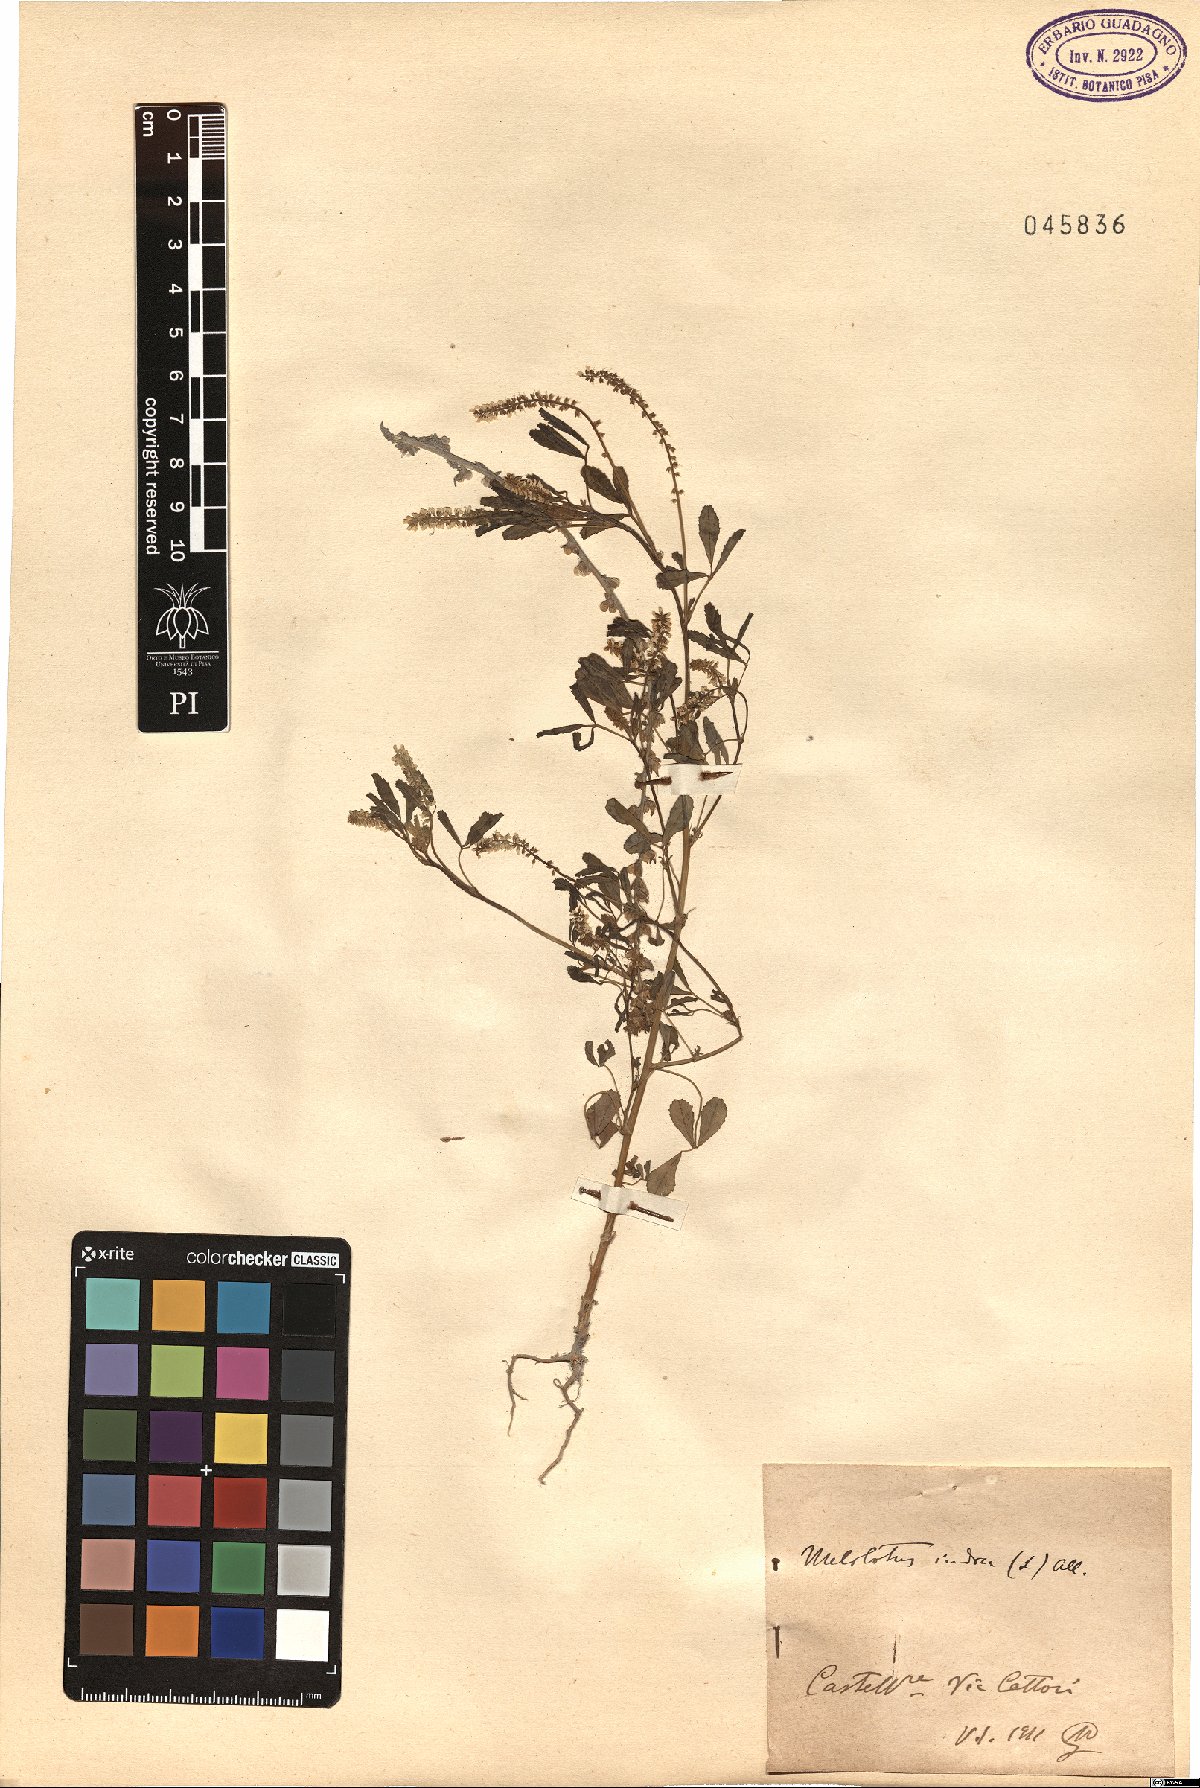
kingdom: Plantae
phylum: Tracheophyta
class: Magnoliopsida
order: Fabales
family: Fabaceae
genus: Melilotus
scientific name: Melilotus indicus
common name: Small melilot
